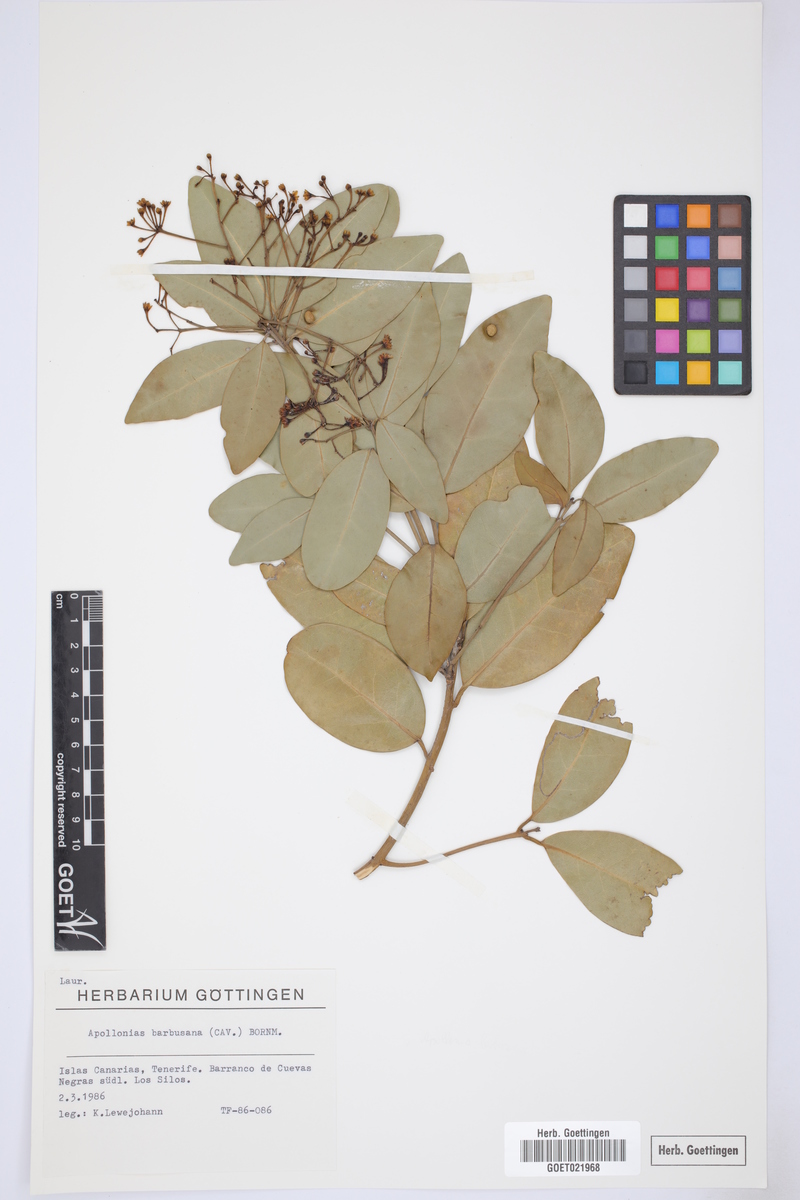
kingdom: Plantae
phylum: Tracheophyta
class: Magnoliopsida
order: Laurales
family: Lauraceae
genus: Apollonias
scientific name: Apollonias barbujana
